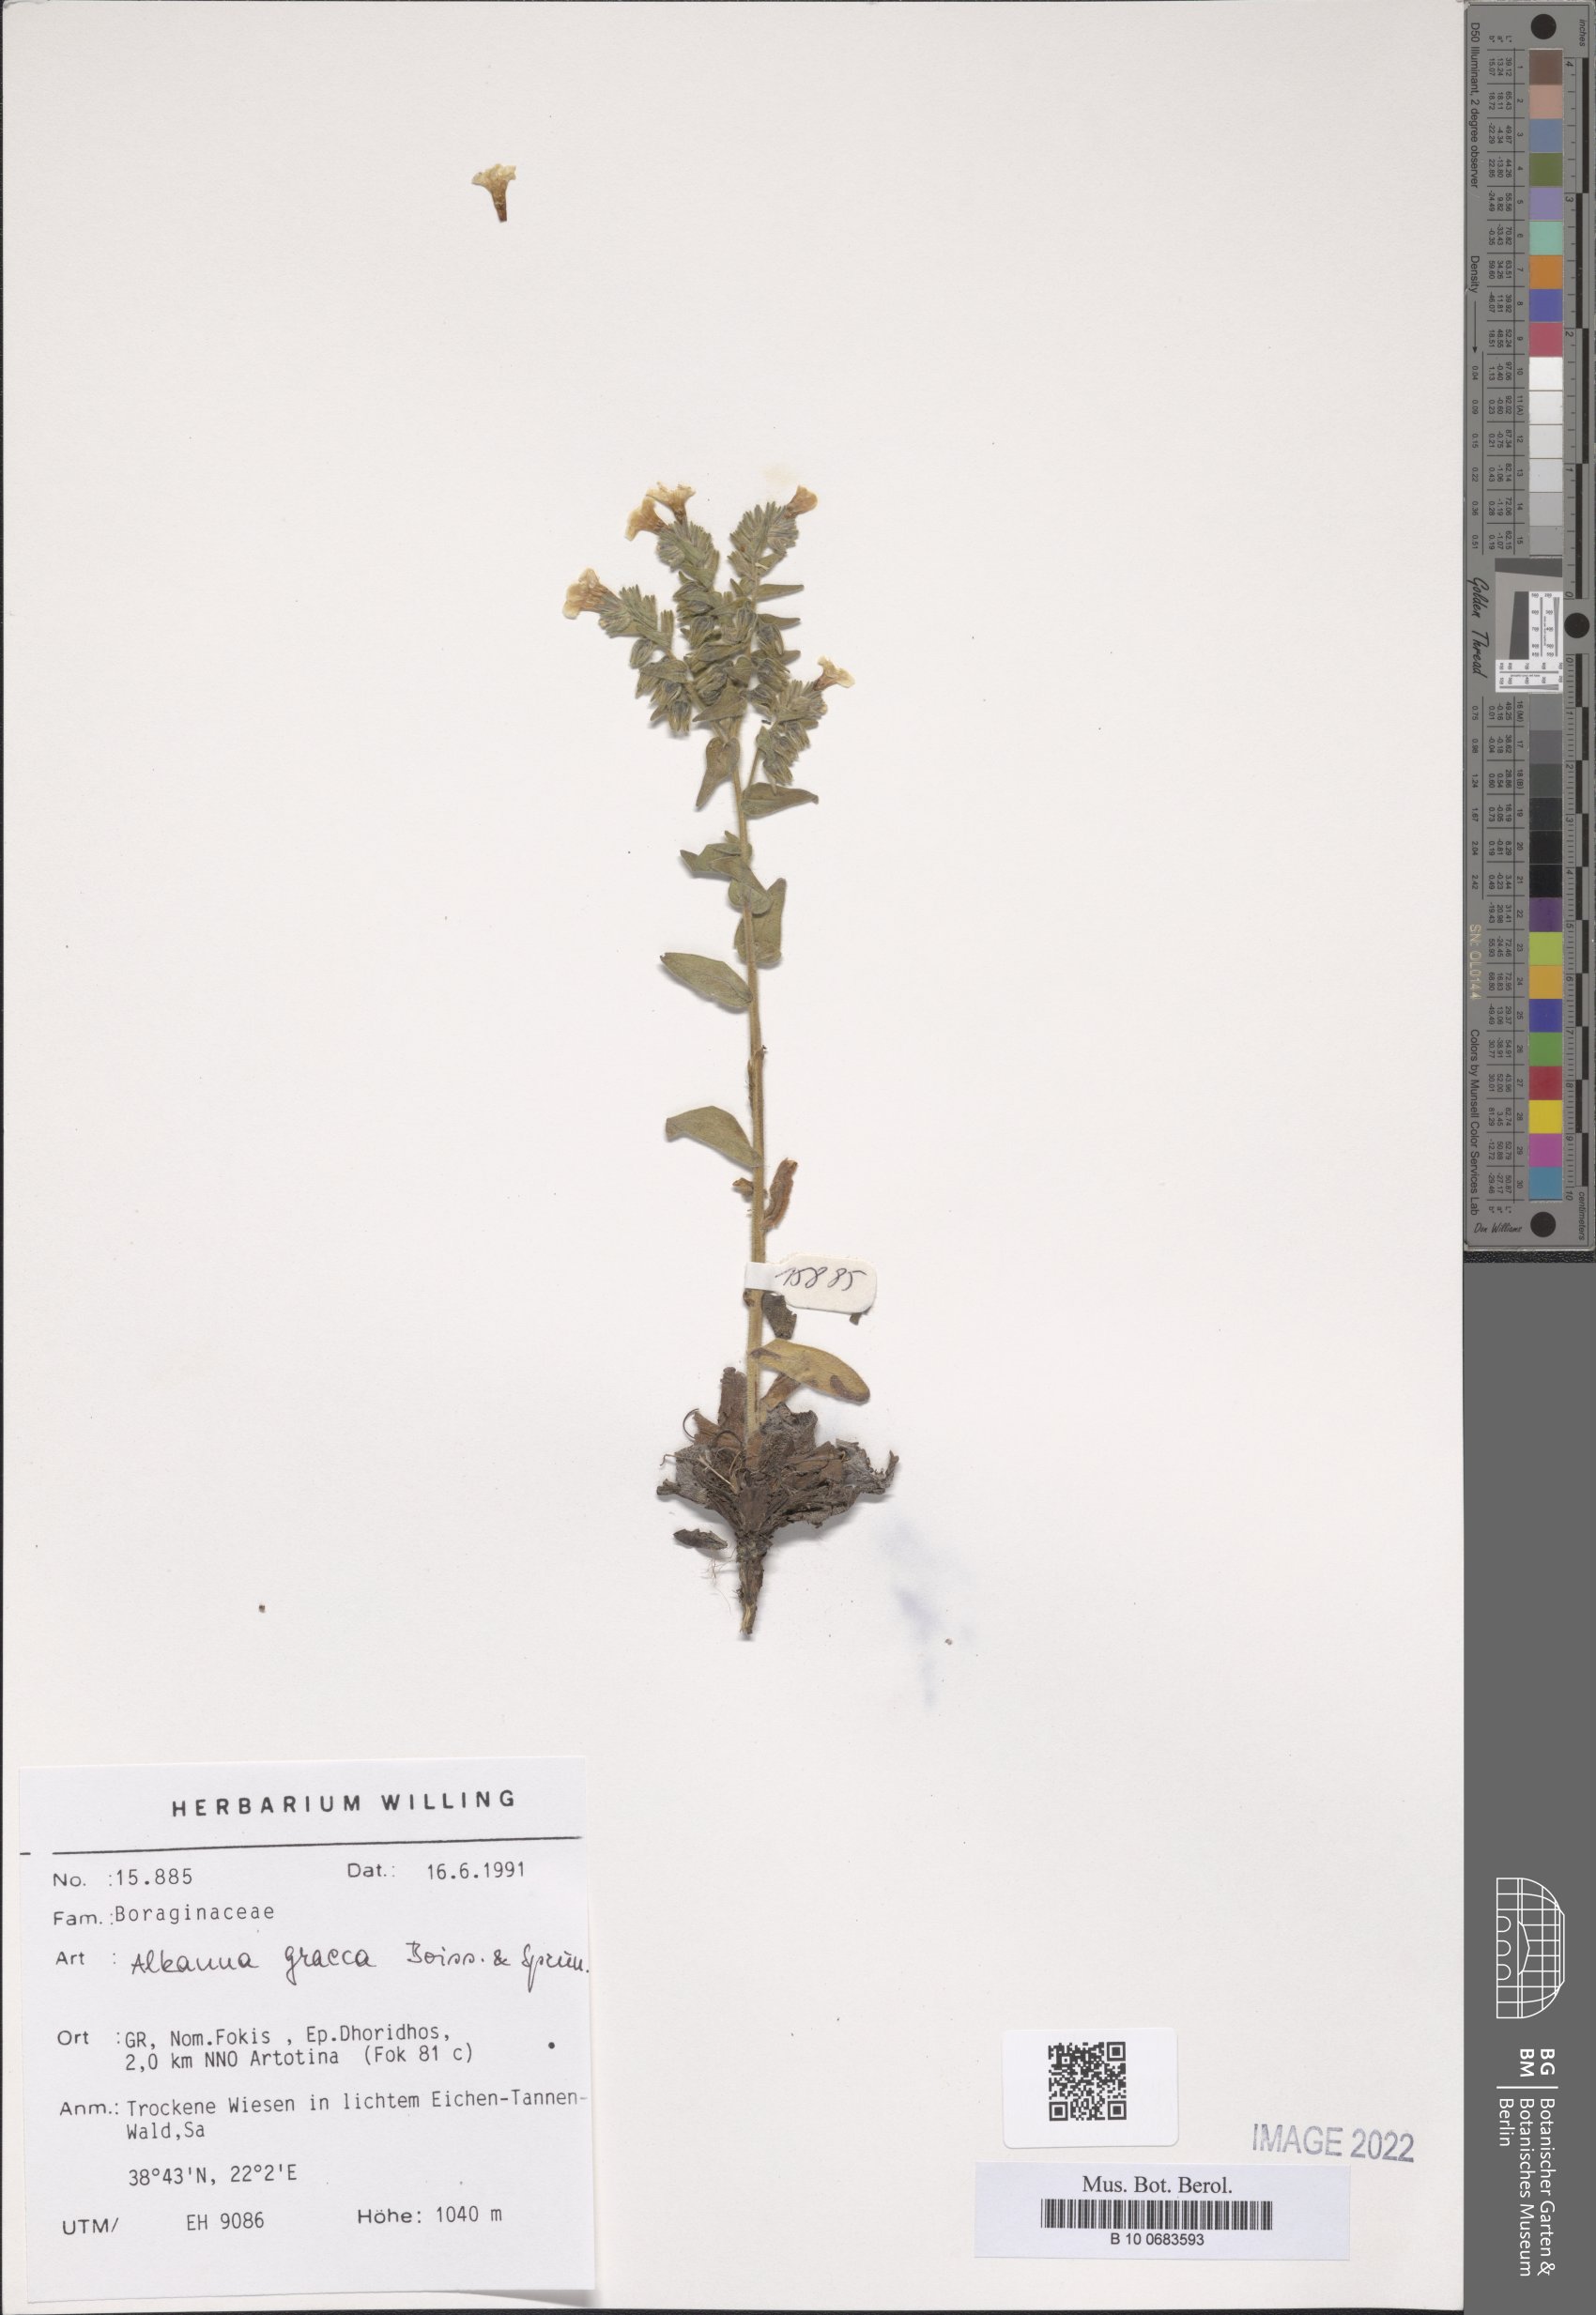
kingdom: Plantae
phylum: Tracheophyta
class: Magnoliopsida
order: Boraginales
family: Boraginaceae
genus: Alkanna
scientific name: Alkanna graeca
